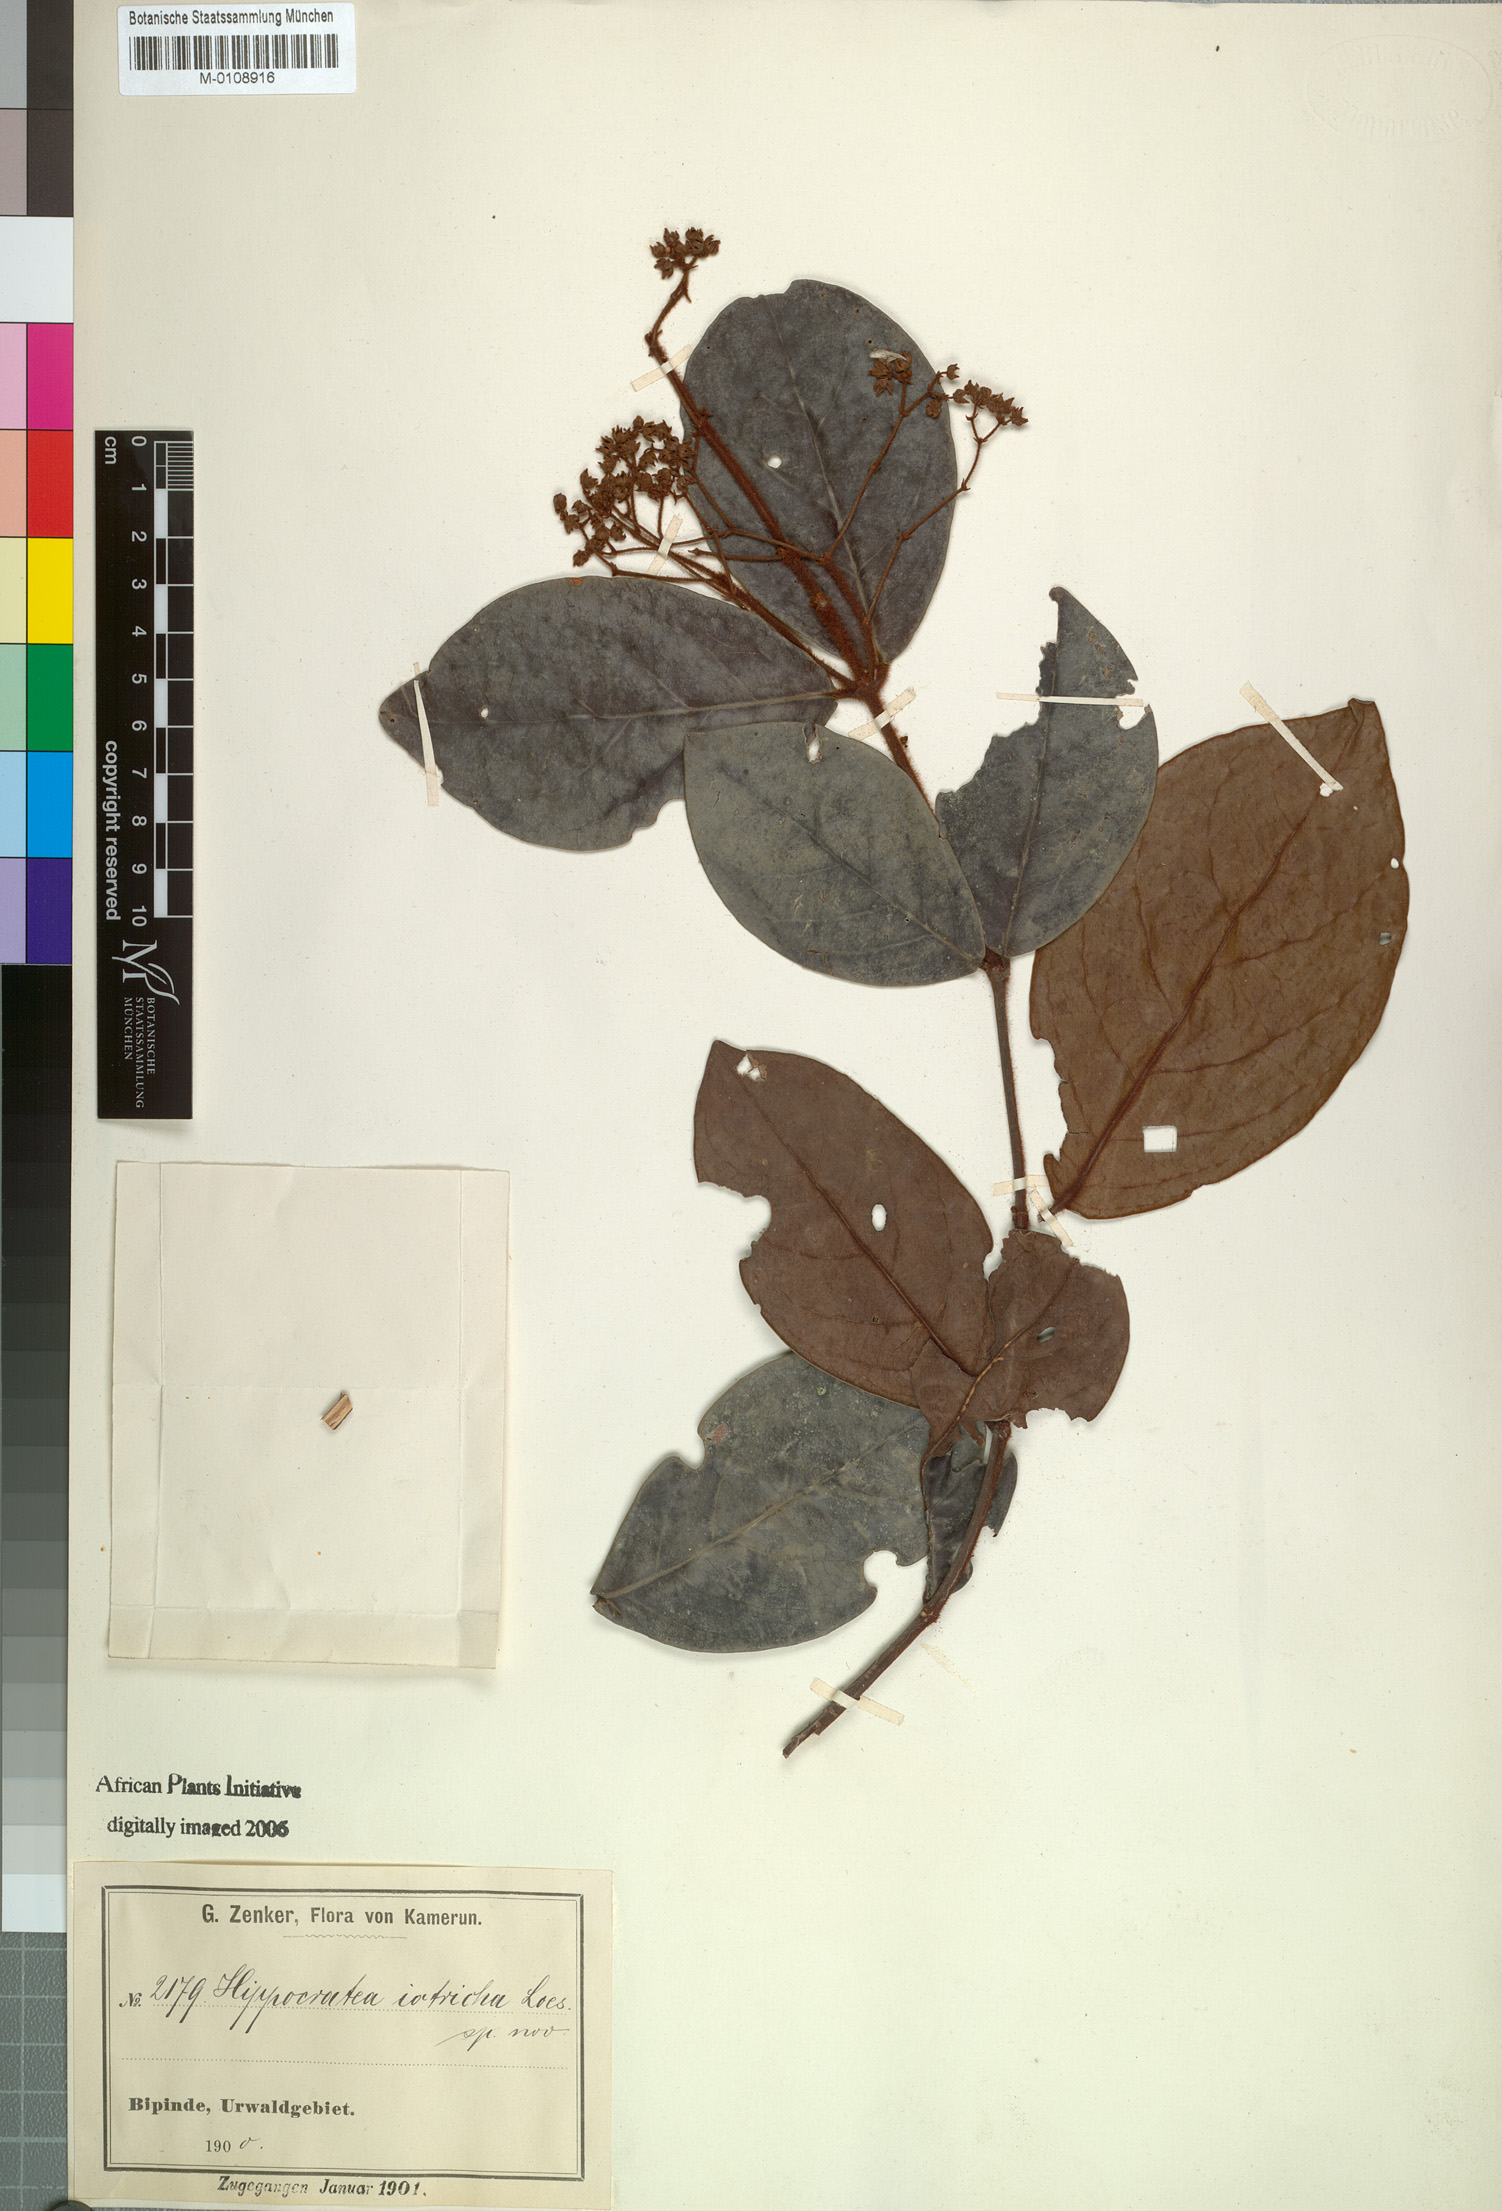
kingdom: Plantae
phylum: Tracheophyta
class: Magnoliopsida
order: Celastrales
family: Celastraceae
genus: Loeseneriella
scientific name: Loeseneriella iotricha
